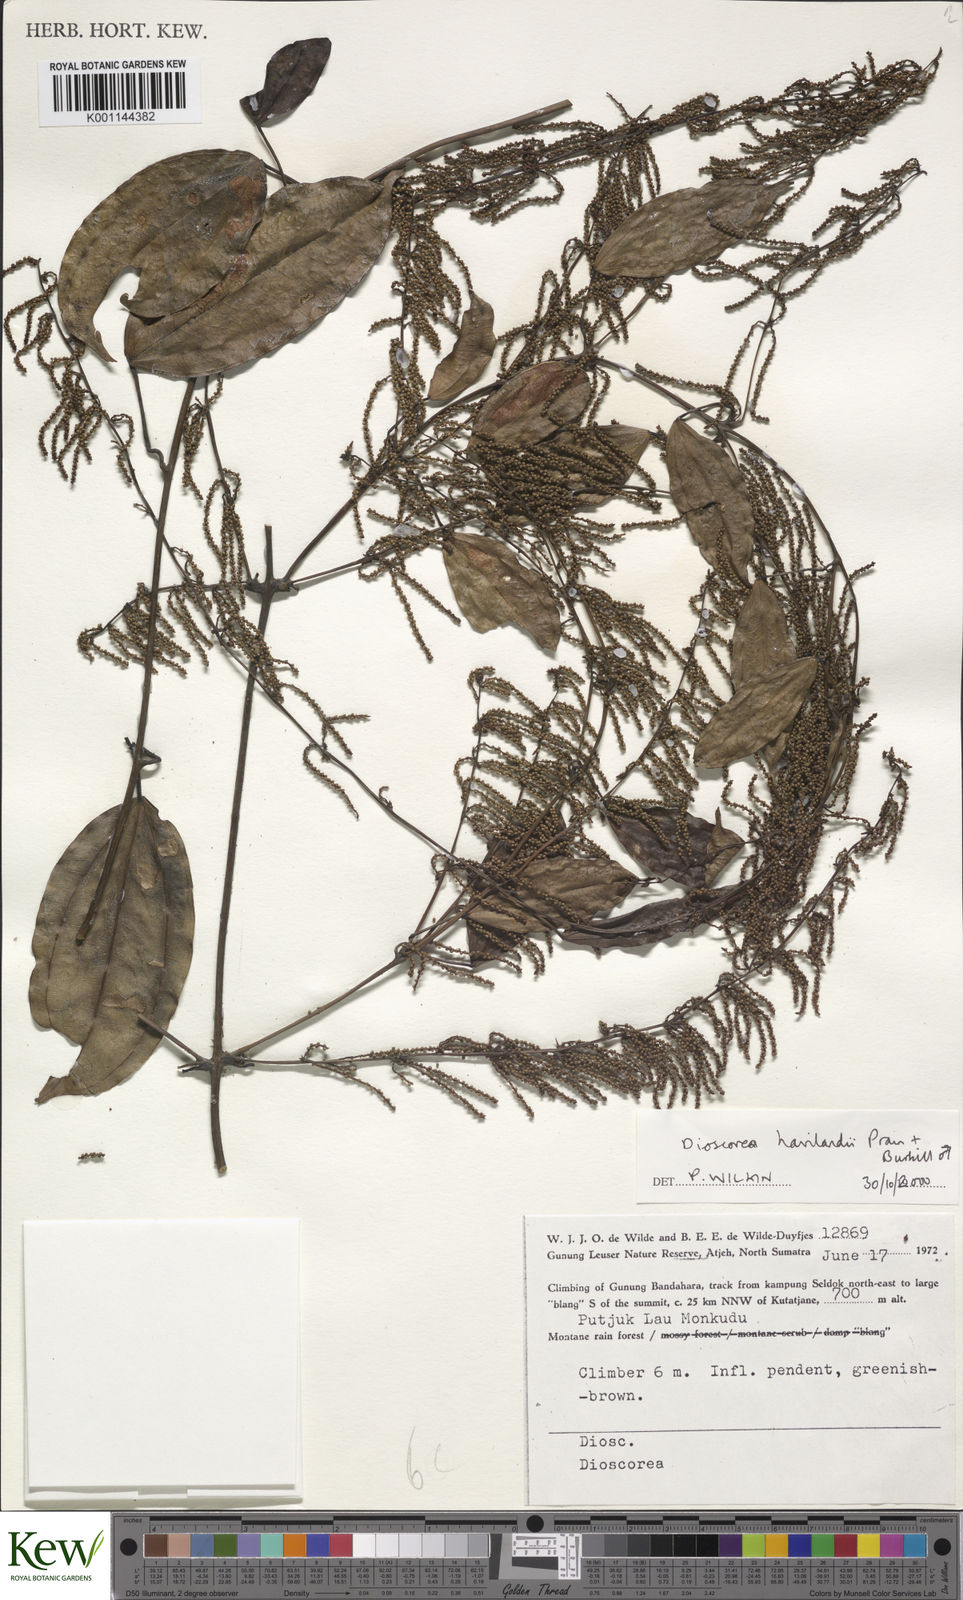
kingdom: Plantae
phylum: Tracheophyta
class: Liliopsida
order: Dioscoreales
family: Dioscoreaceae
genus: Dioscorea
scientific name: Dioscorea havilandii
